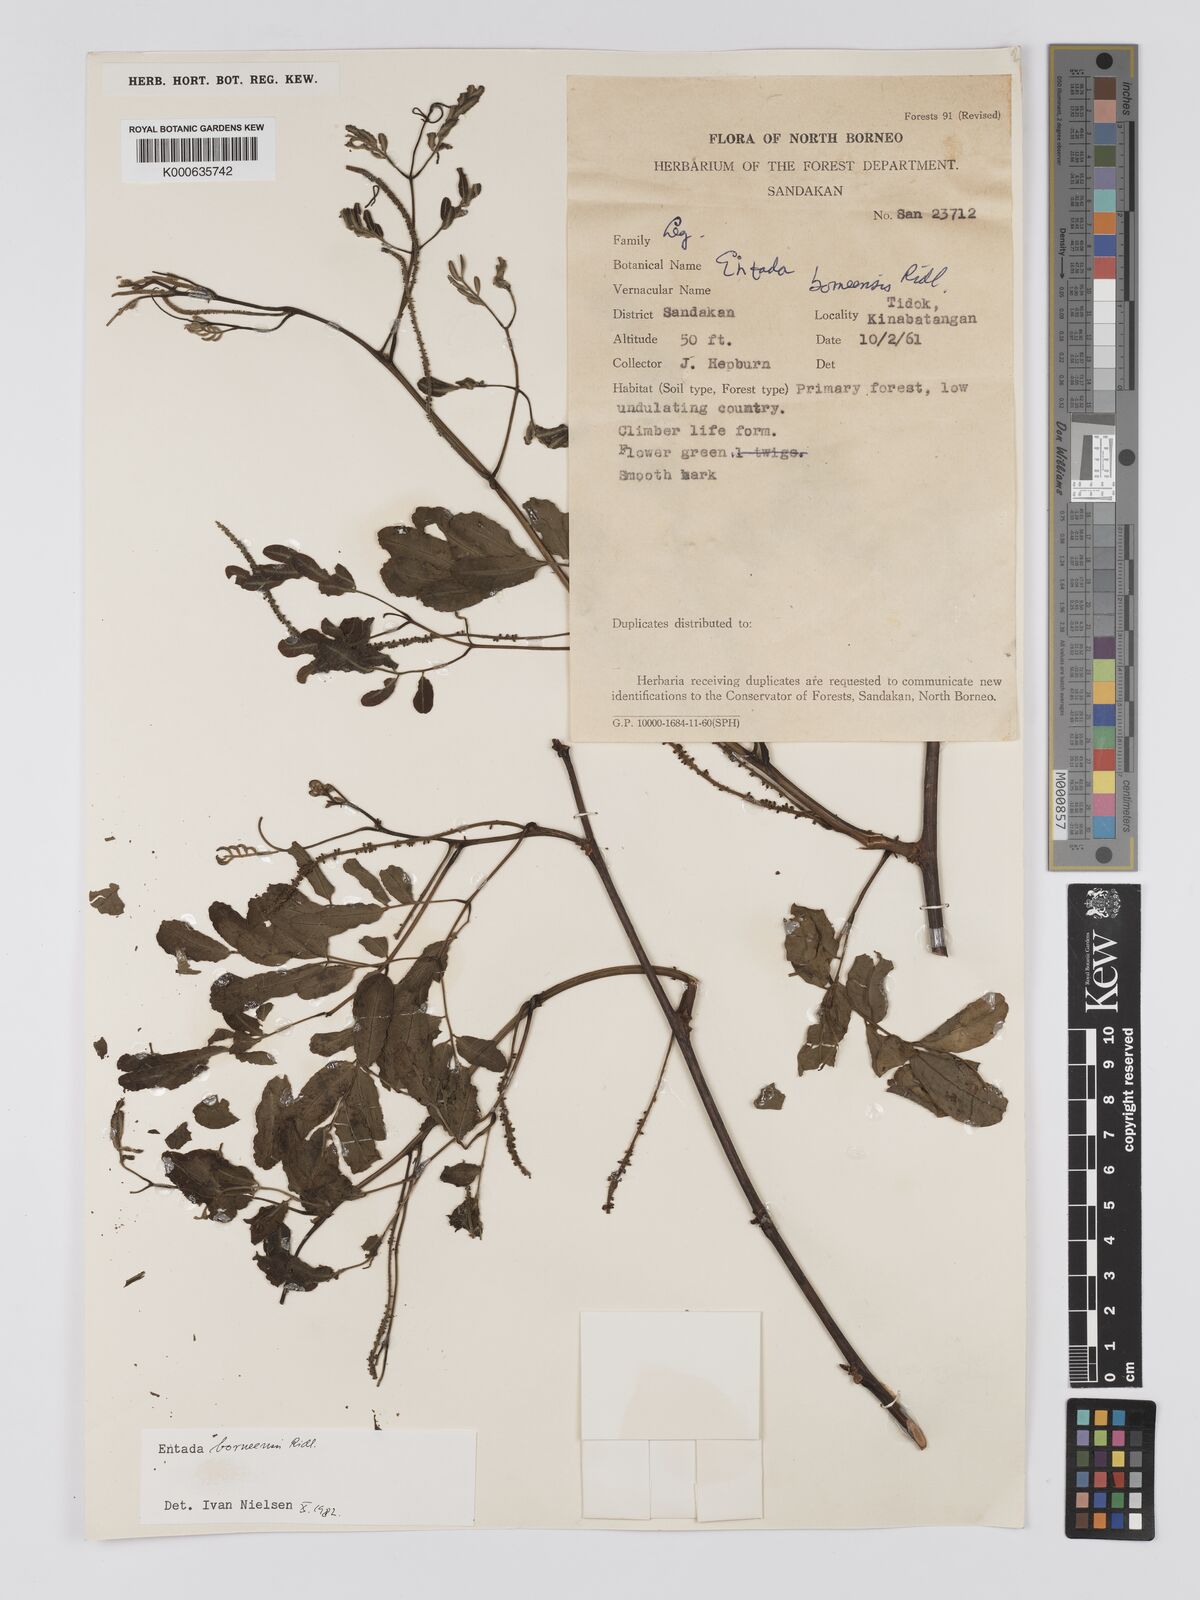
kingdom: Plantae
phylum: Tracheophyta
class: Magnoliopsida
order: Fabales
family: Fabaceae
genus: Entada
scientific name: Entada borneensis
